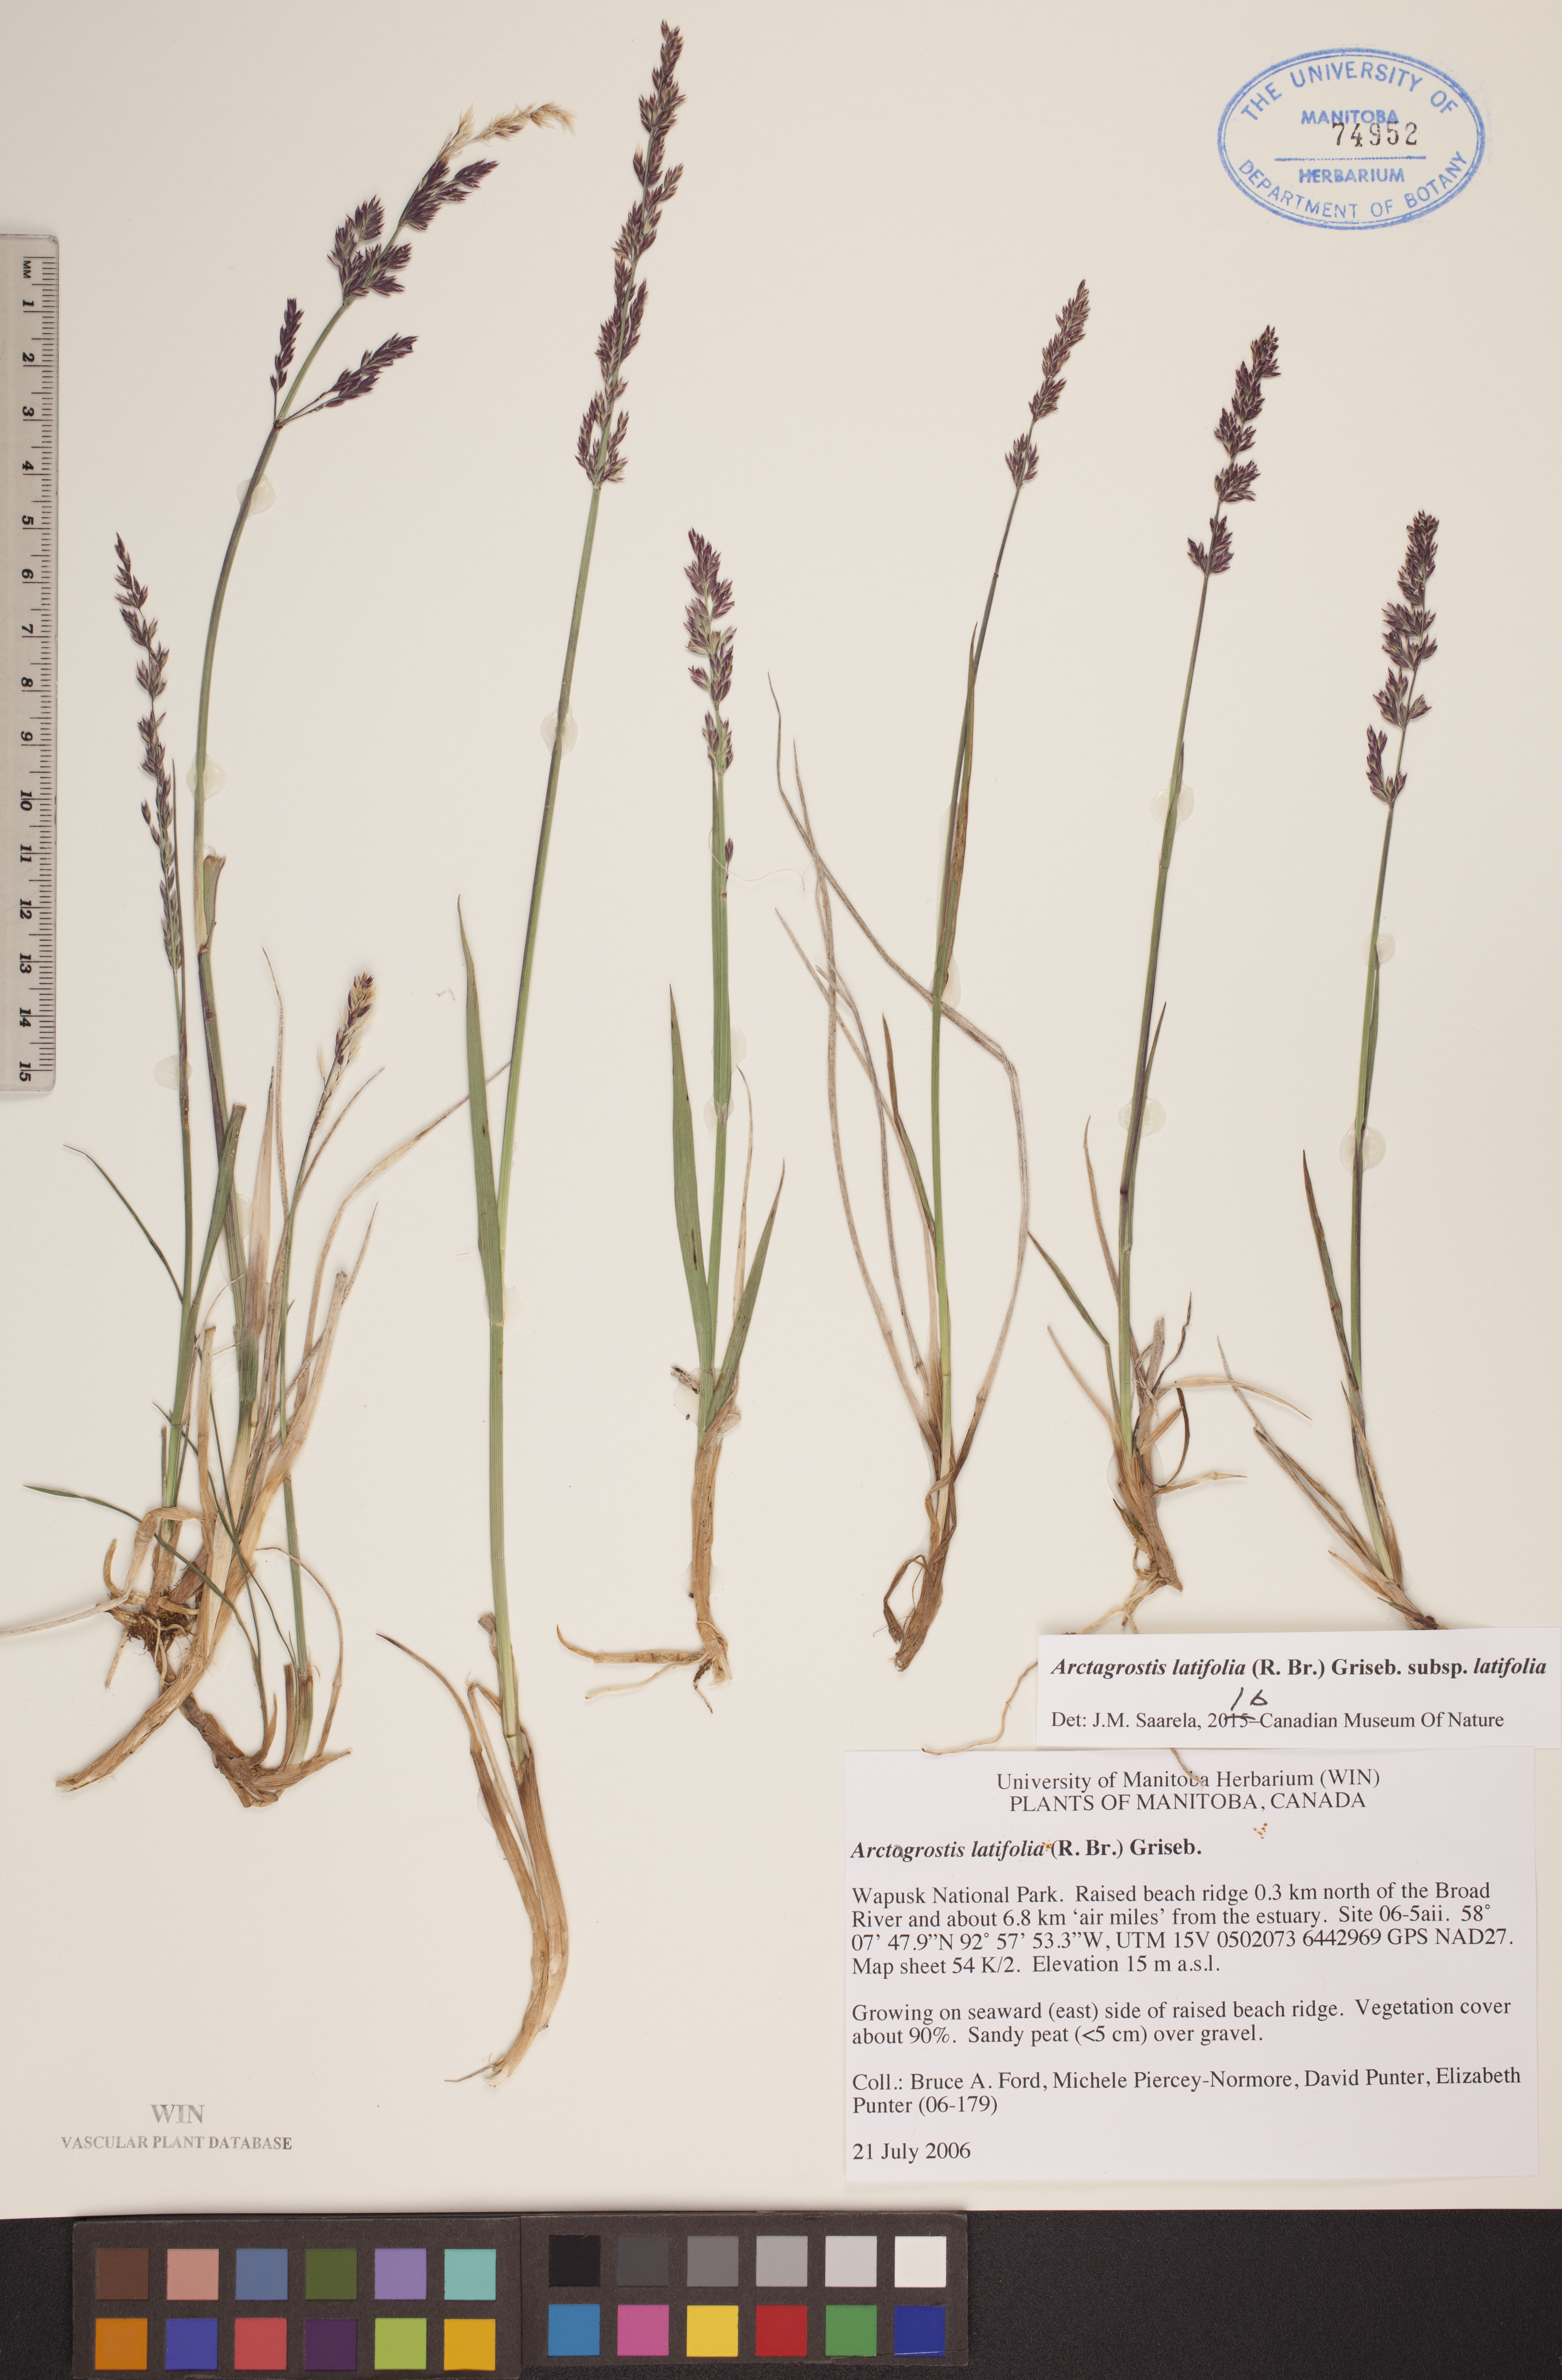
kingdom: Plantae
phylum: Tracheophyta
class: Liliopsida
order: Poales
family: Poaceae
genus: Arctagrostis
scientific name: Arctagrostis latifolia
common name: Arctic grass
